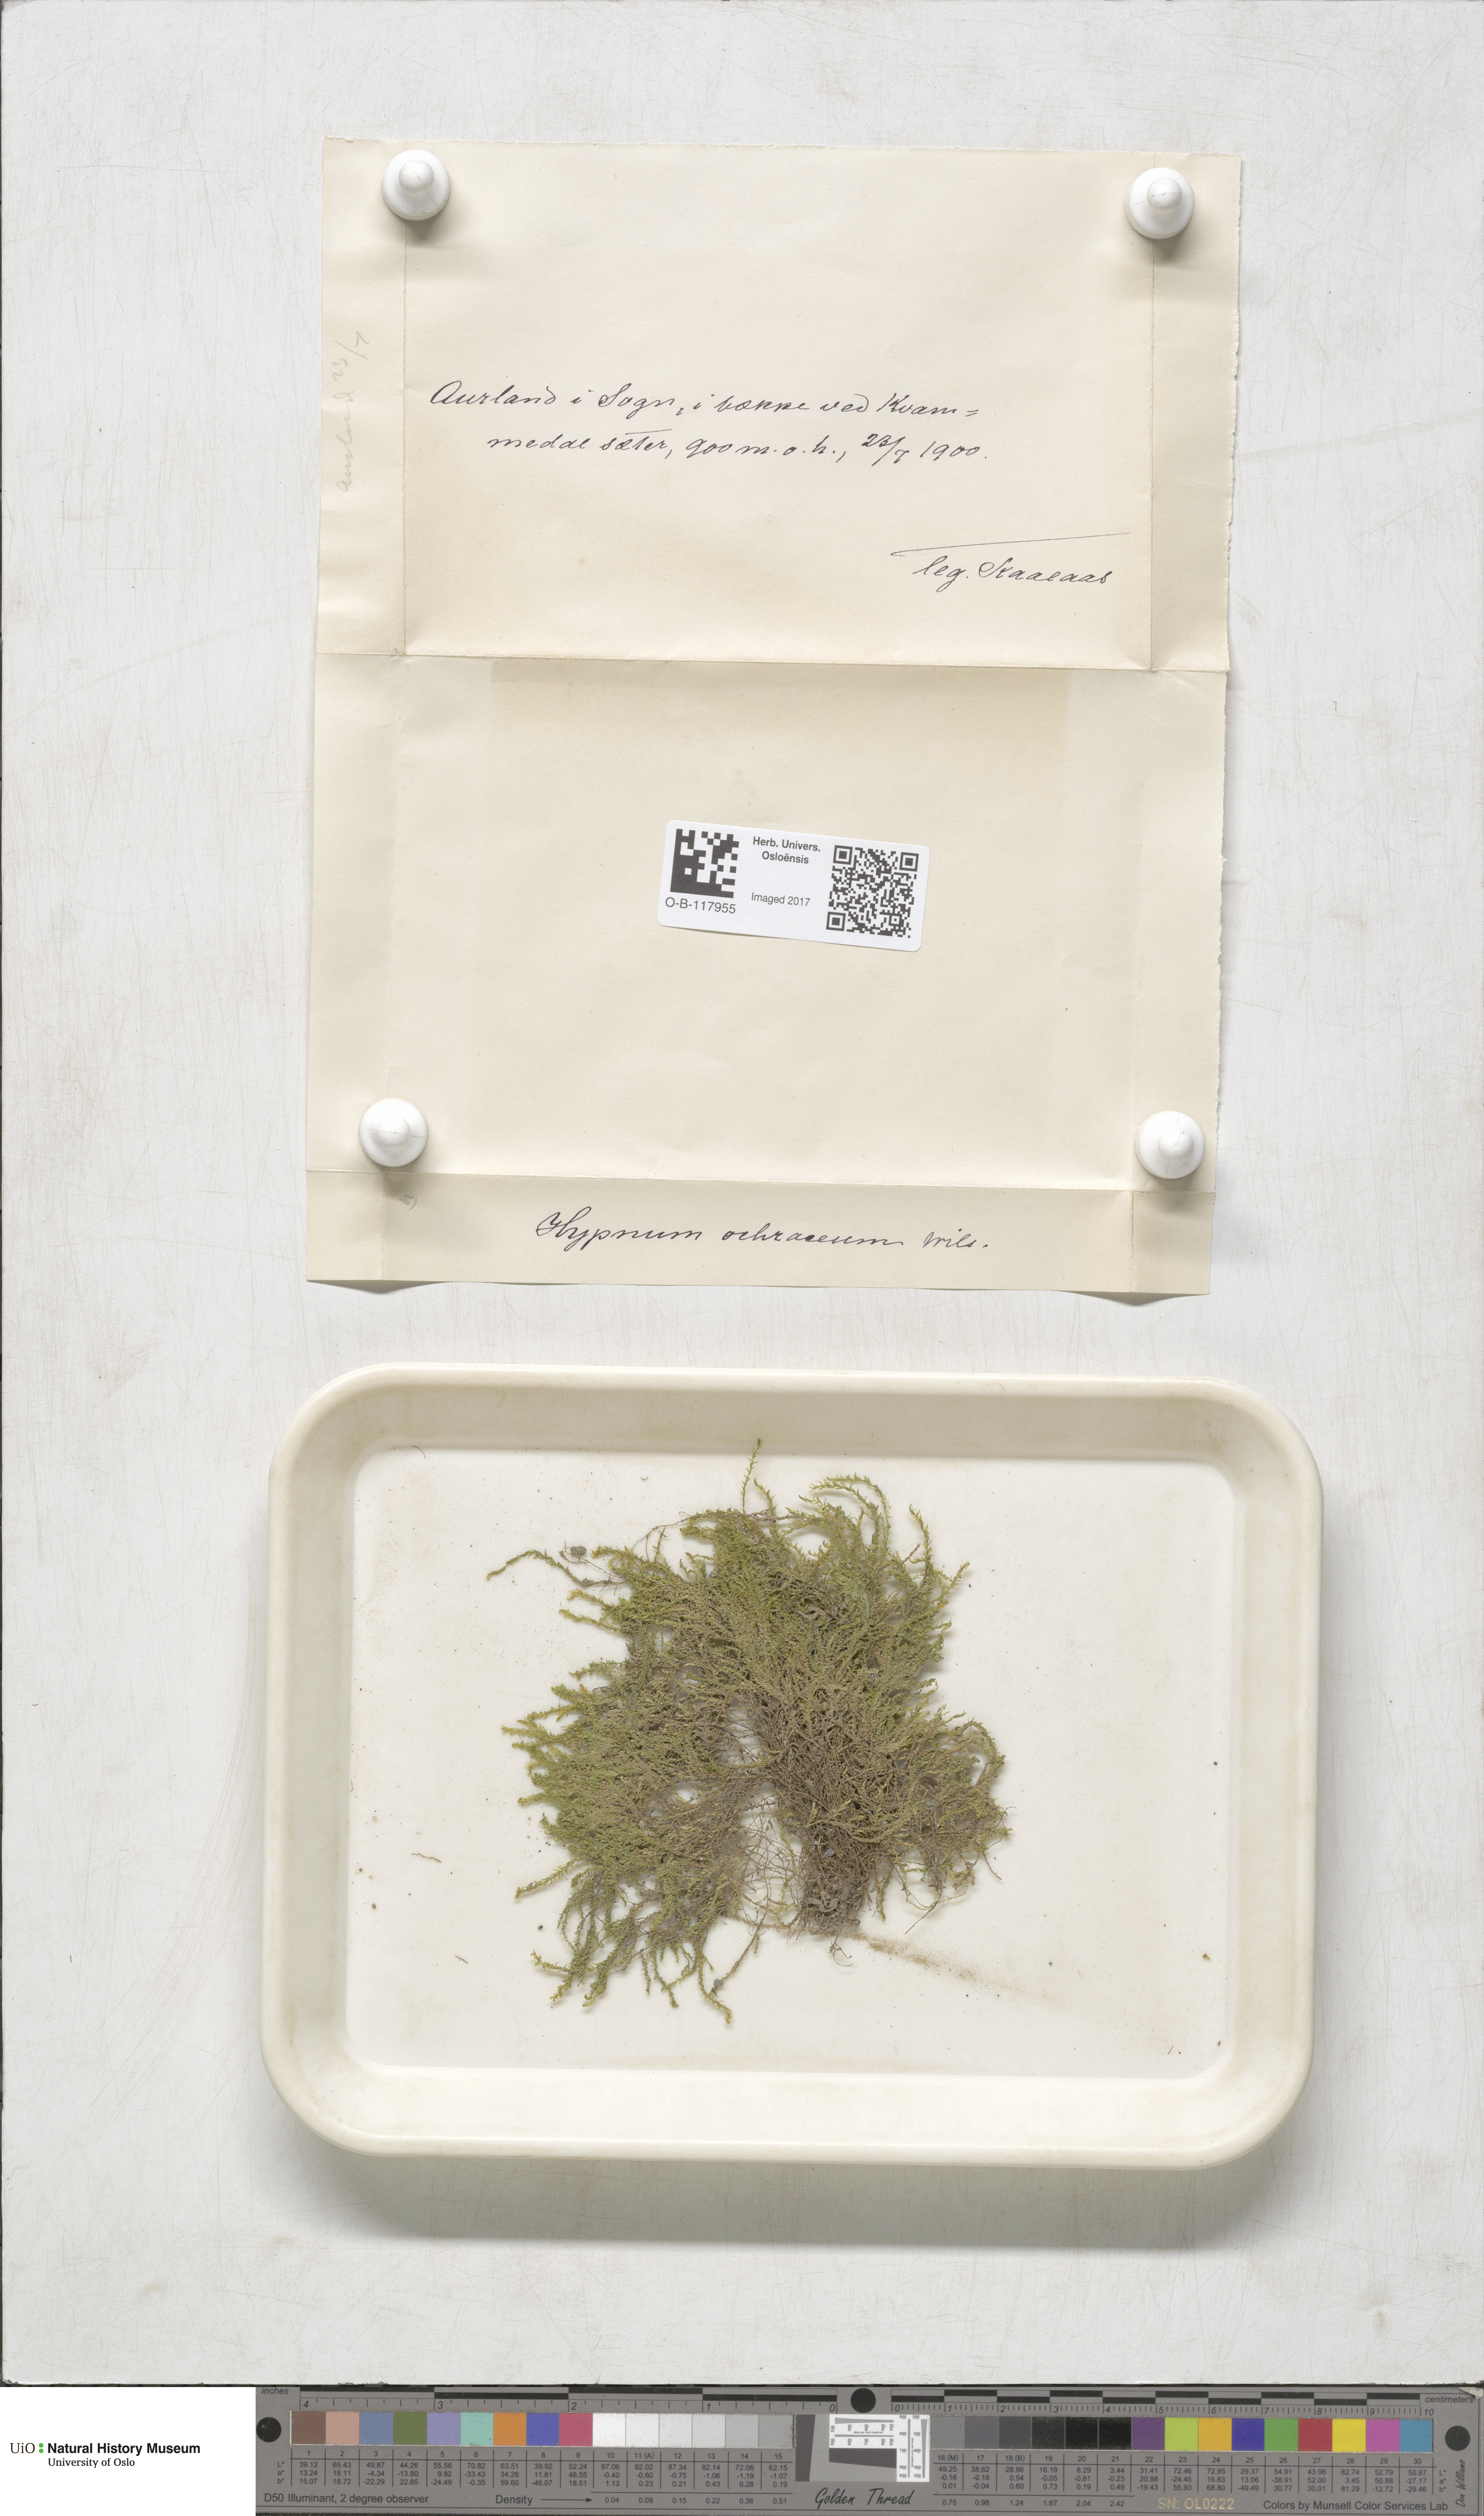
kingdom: Plantae
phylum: Bryophyta
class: Bryopsida
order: Hypnales
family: Scorpidiaceae
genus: Hygrohypnella
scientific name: Hygrohypnella ochracea
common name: Hygrohypnum moss
